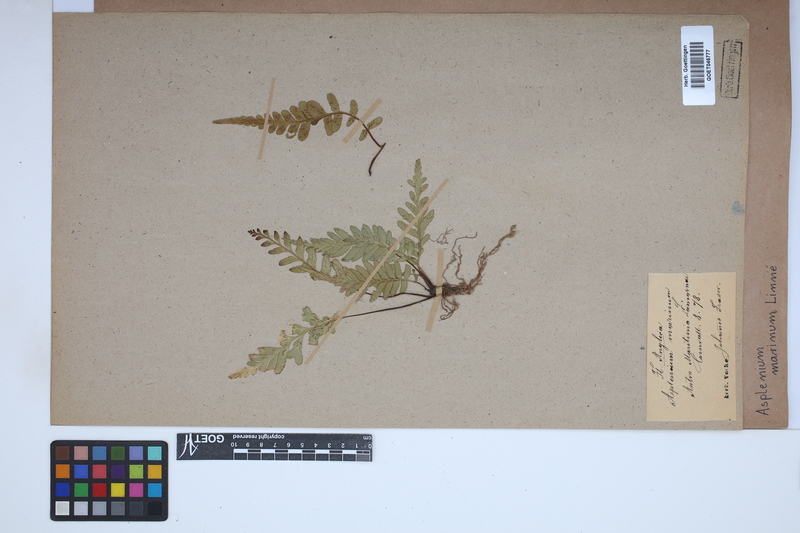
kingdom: Plantae
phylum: Tracheophyta
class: Polypodiopsida
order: Polypodiales
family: Aspleniaceae
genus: Asplenium
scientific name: Asplenium marinum
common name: Sea spleenwort
